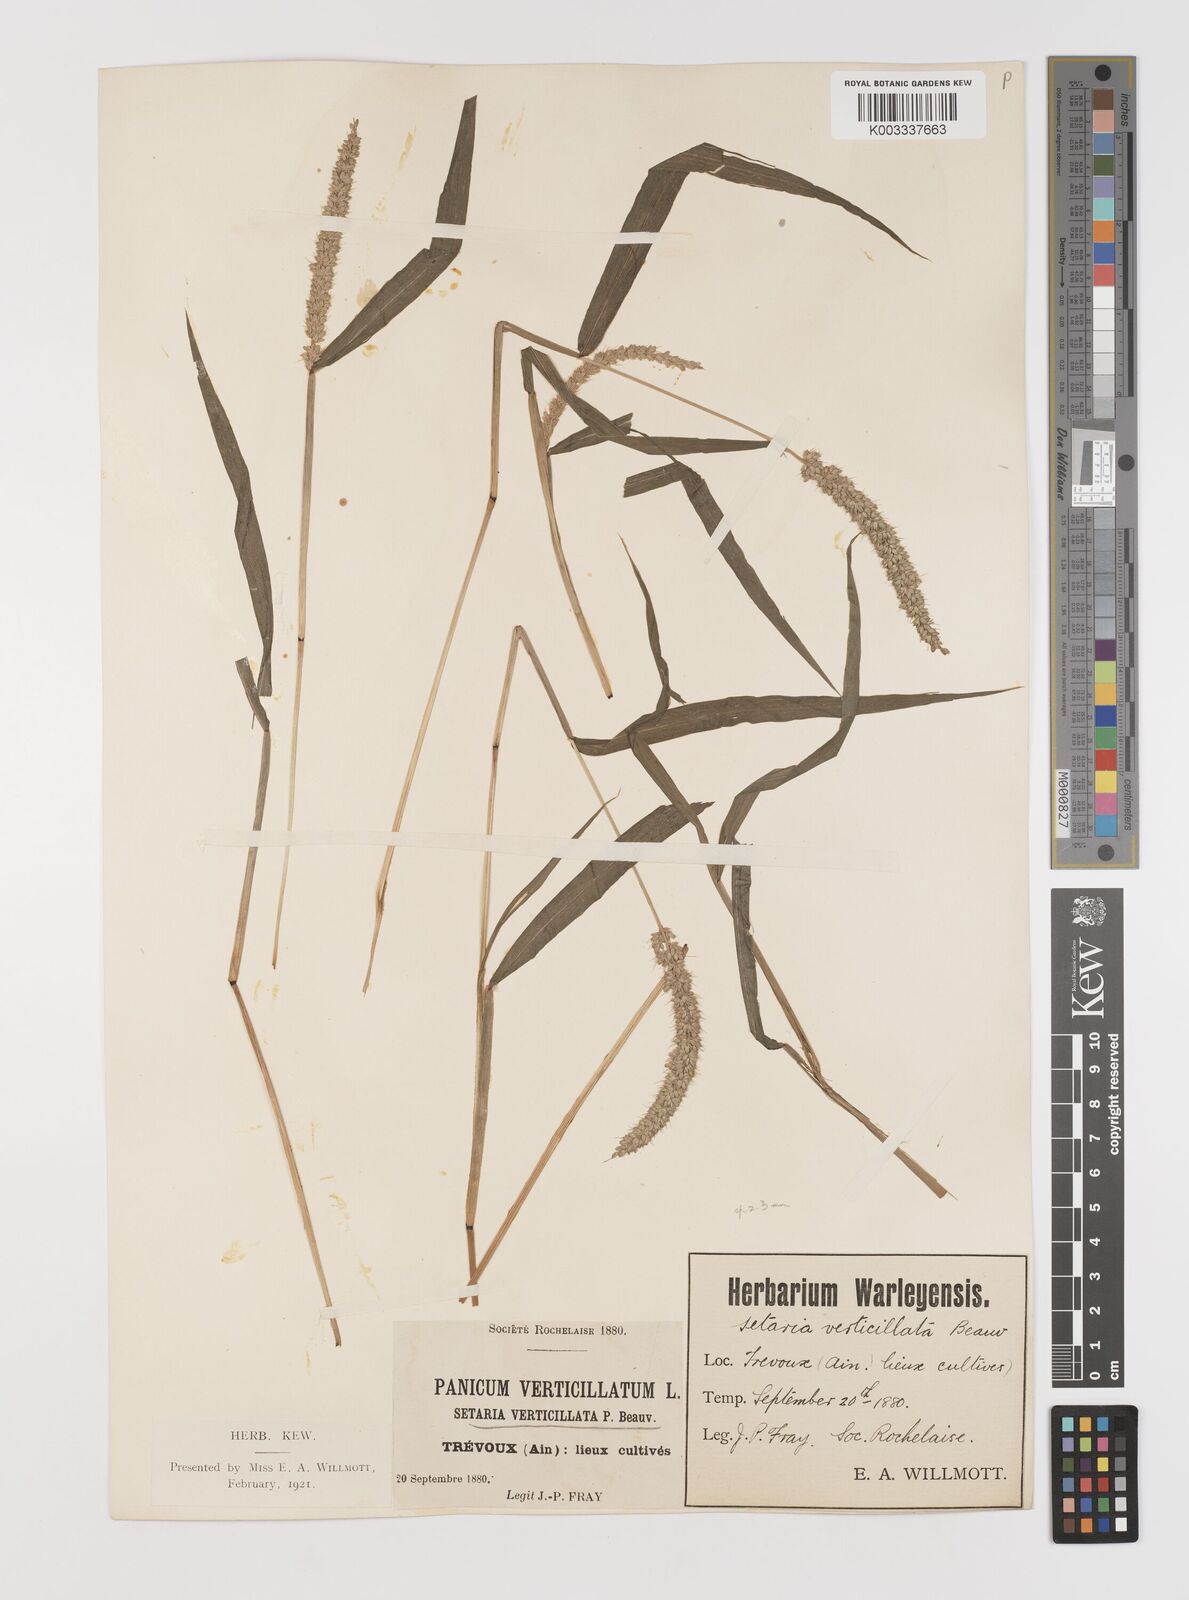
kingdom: Plantae
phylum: Tracheophyta
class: Liliopsida
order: Poales
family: Poaceae
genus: Setaria
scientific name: Setaria verticillata
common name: Hooked bristlegrass
